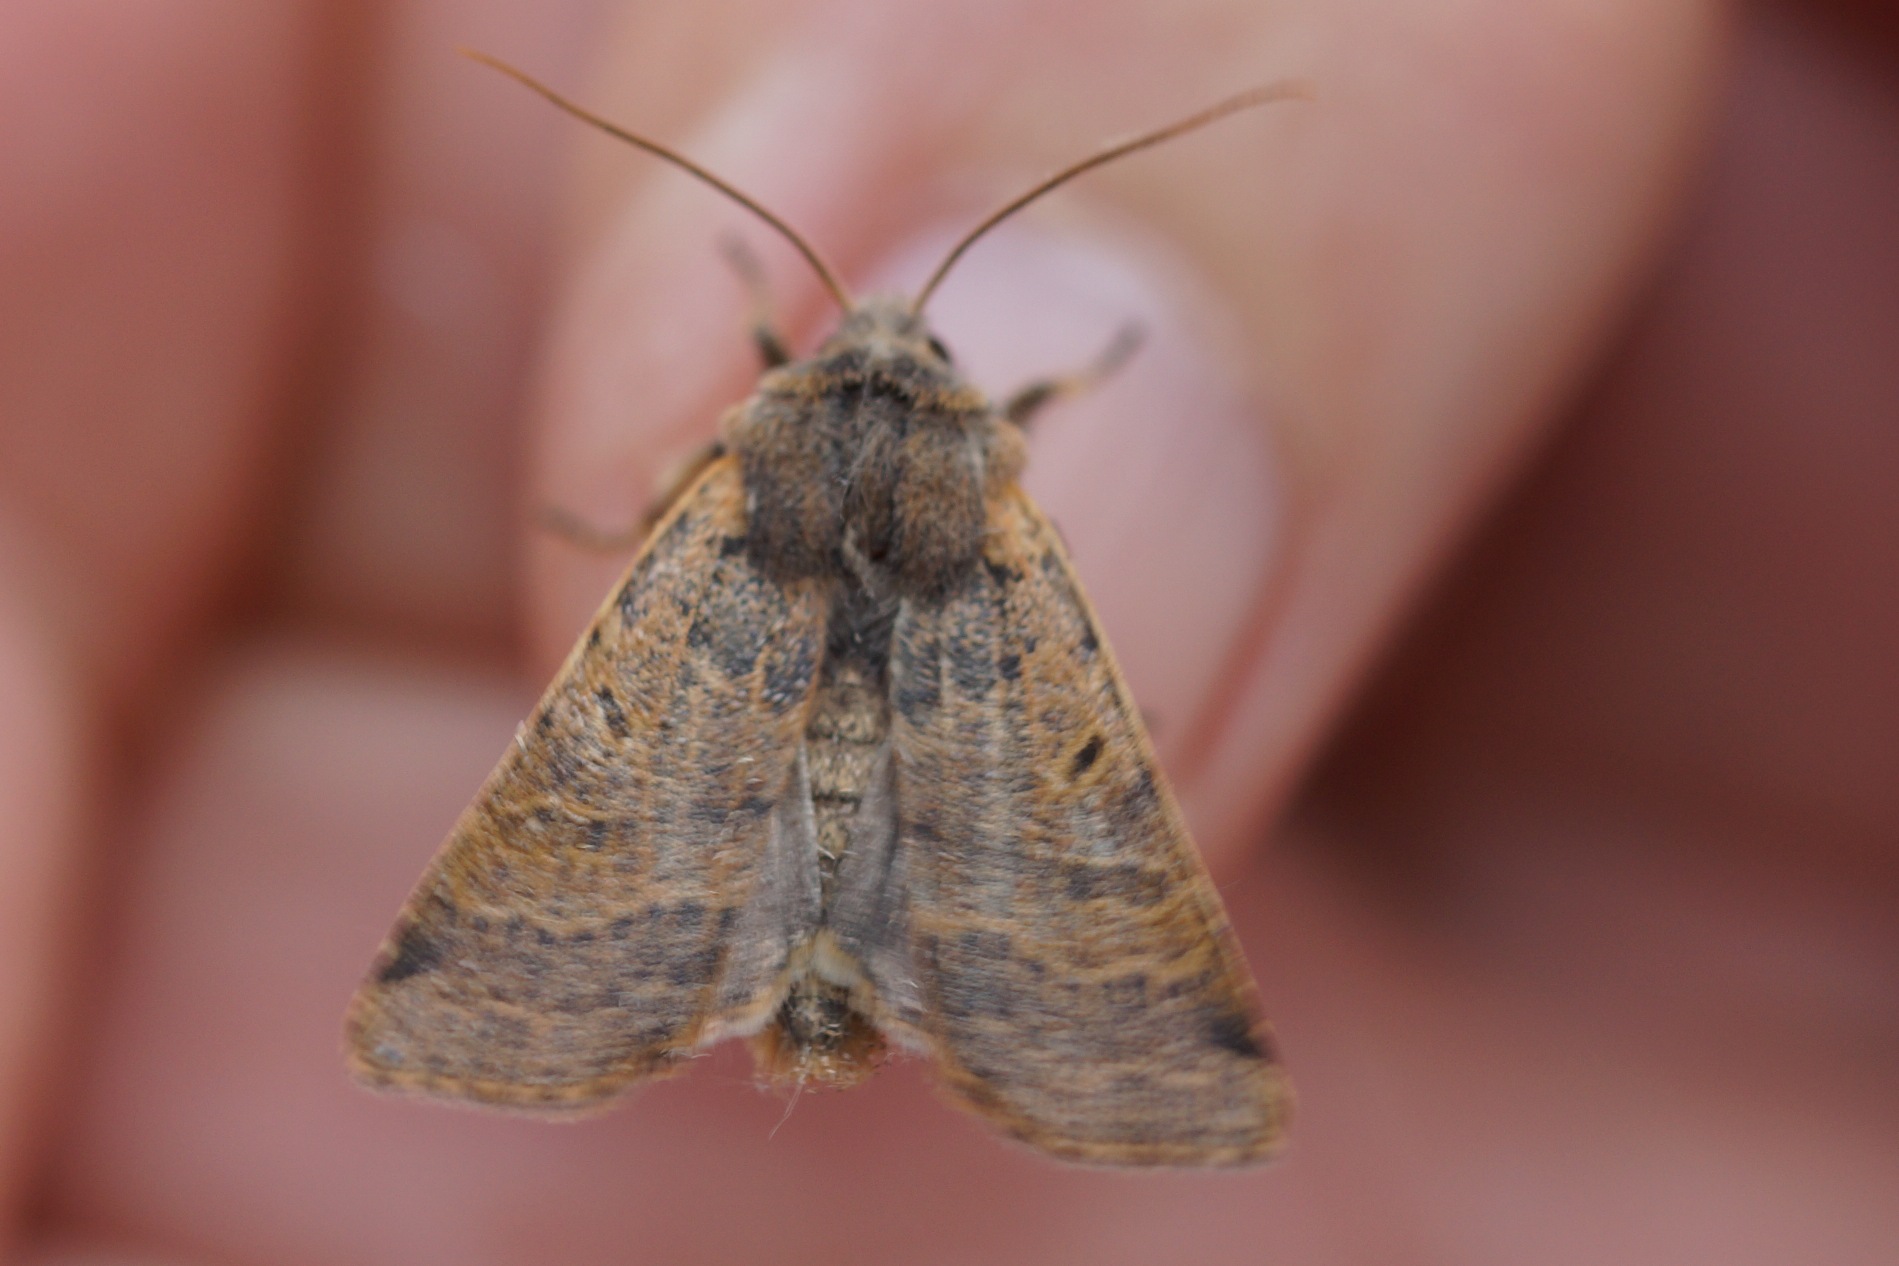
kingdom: Animalia
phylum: Arthropoda
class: Insecta
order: Lepidoptera
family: Noctuidae
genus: Agrochola
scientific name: Agrochola lychnidis
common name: Foranderlig jordfarveugle
